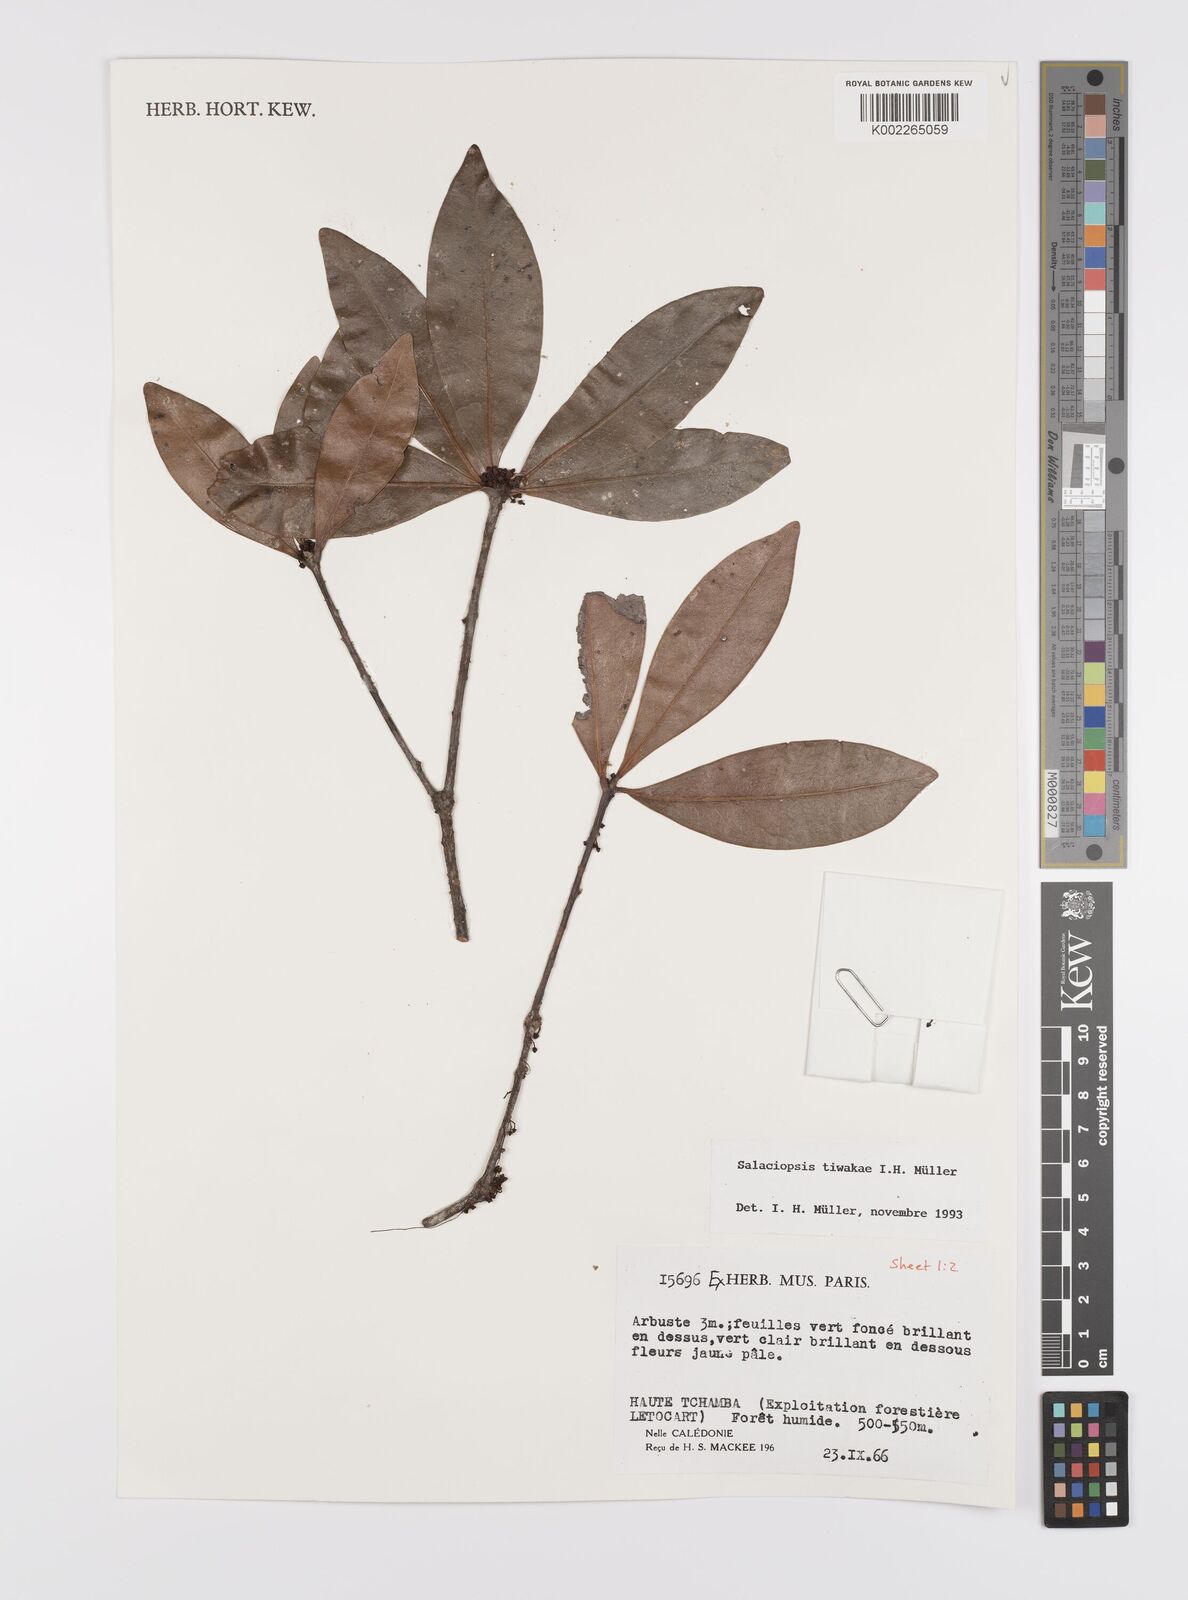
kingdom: Plantae
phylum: Tracheophyta
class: Magnoliopsida
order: Celastrales
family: Celastraceae
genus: Salaciopsis
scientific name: Salaciopsis tiwakae
